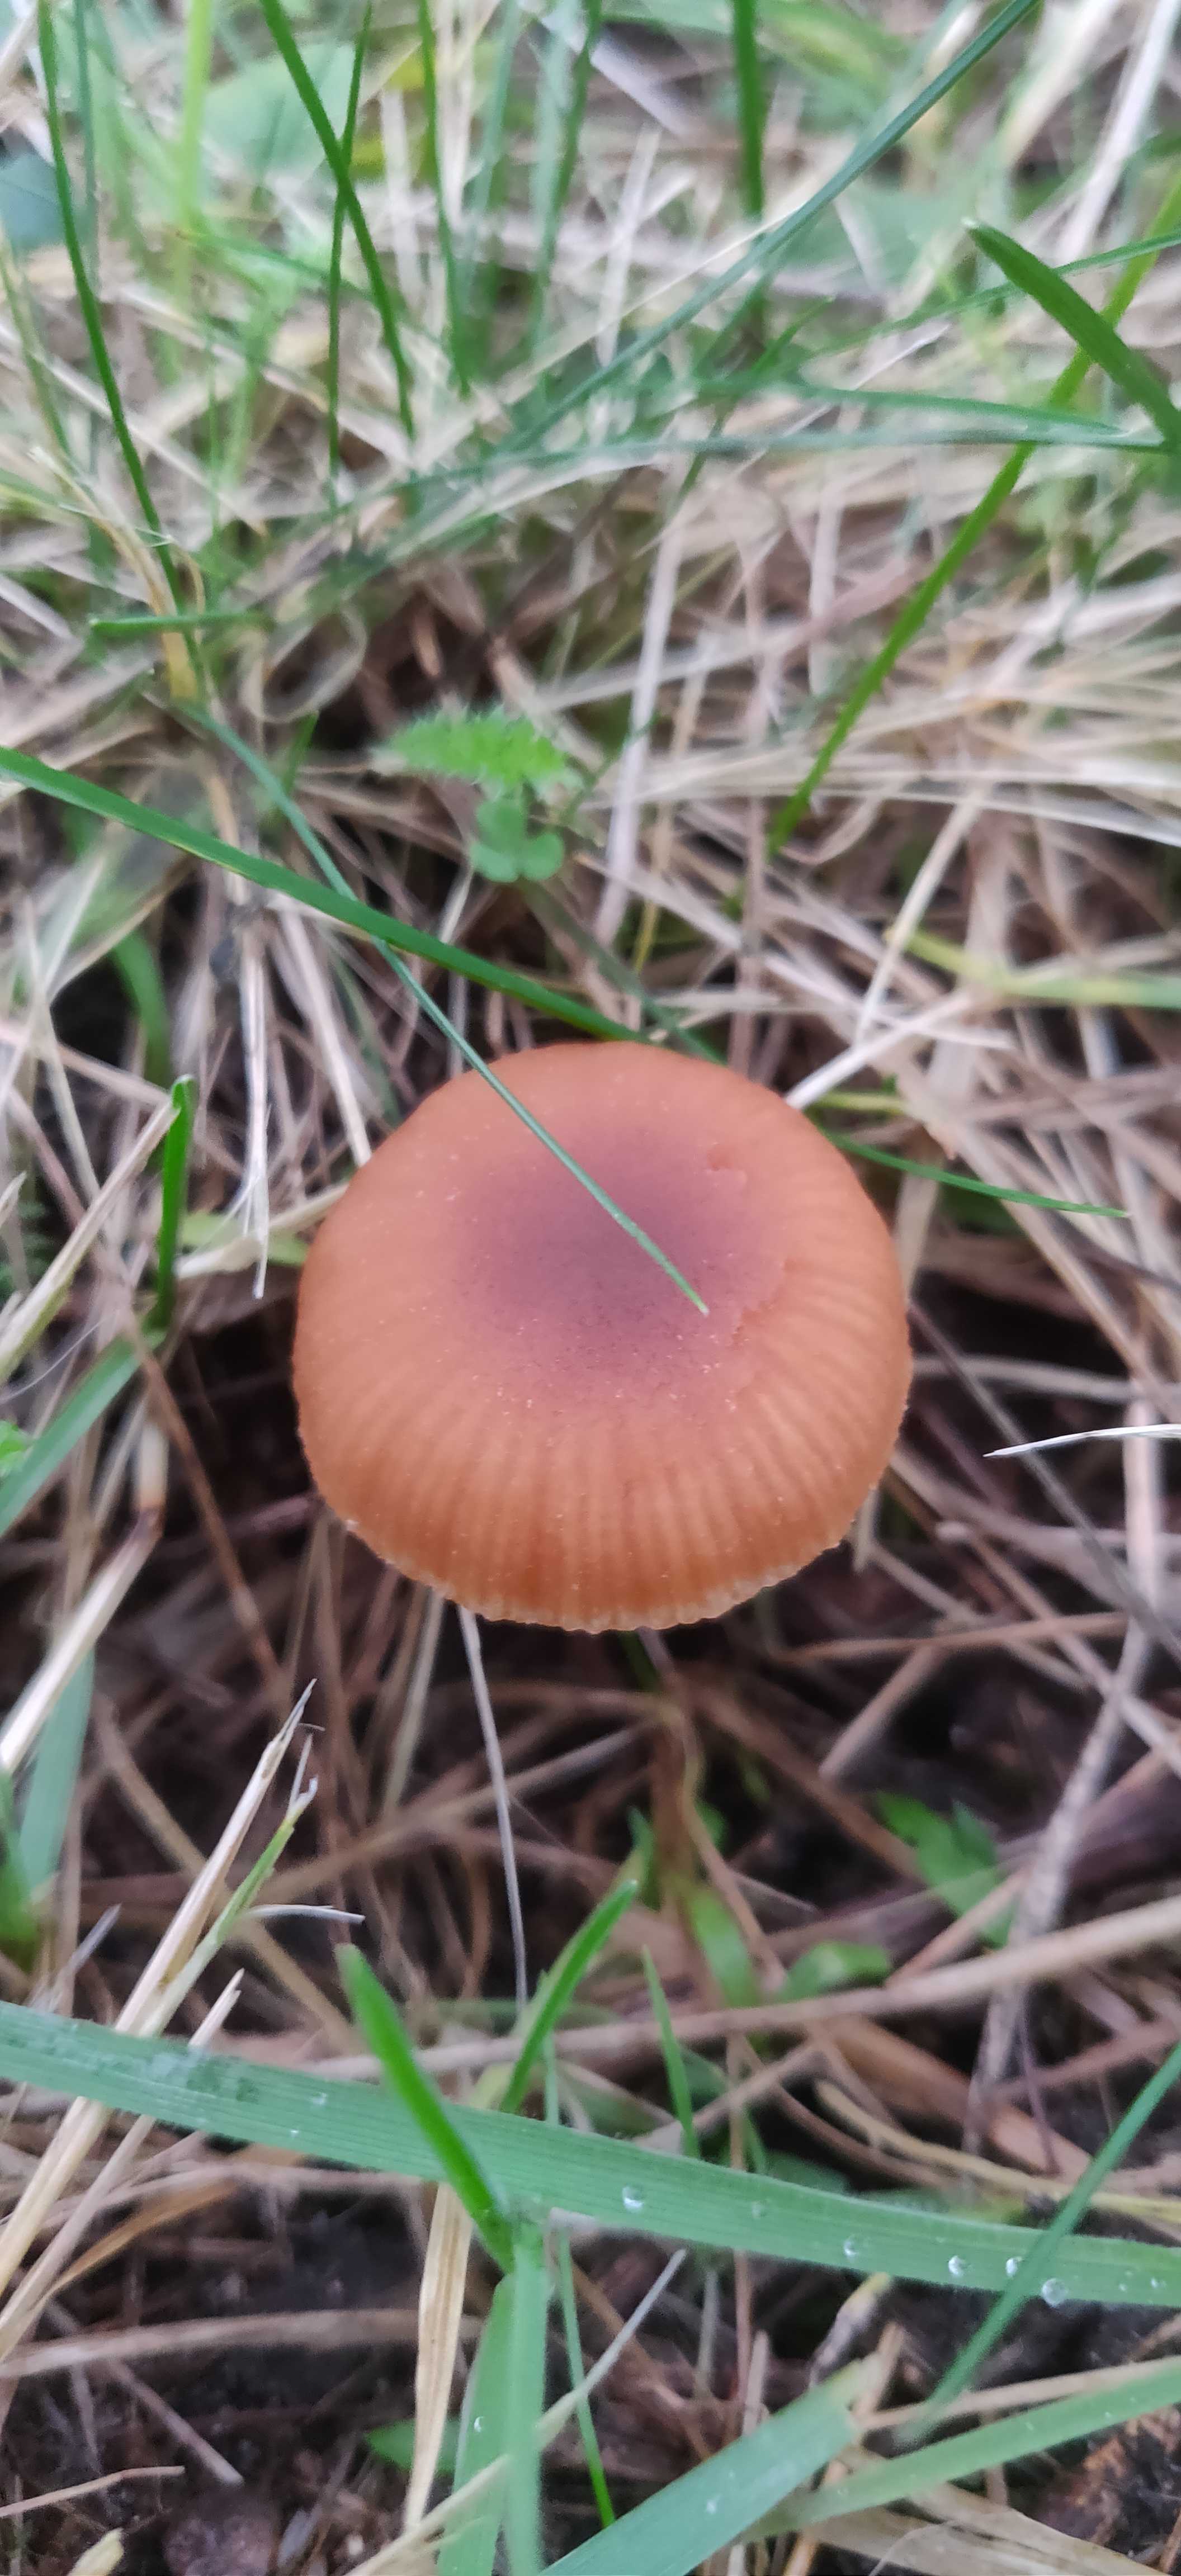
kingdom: Fungi
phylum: Basidiomycota
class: Agaricomycetes
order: Agaricales
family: Tubariaceae
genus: Tubaria
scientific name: Tubaria furfuracea
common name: kliddet fnughat
